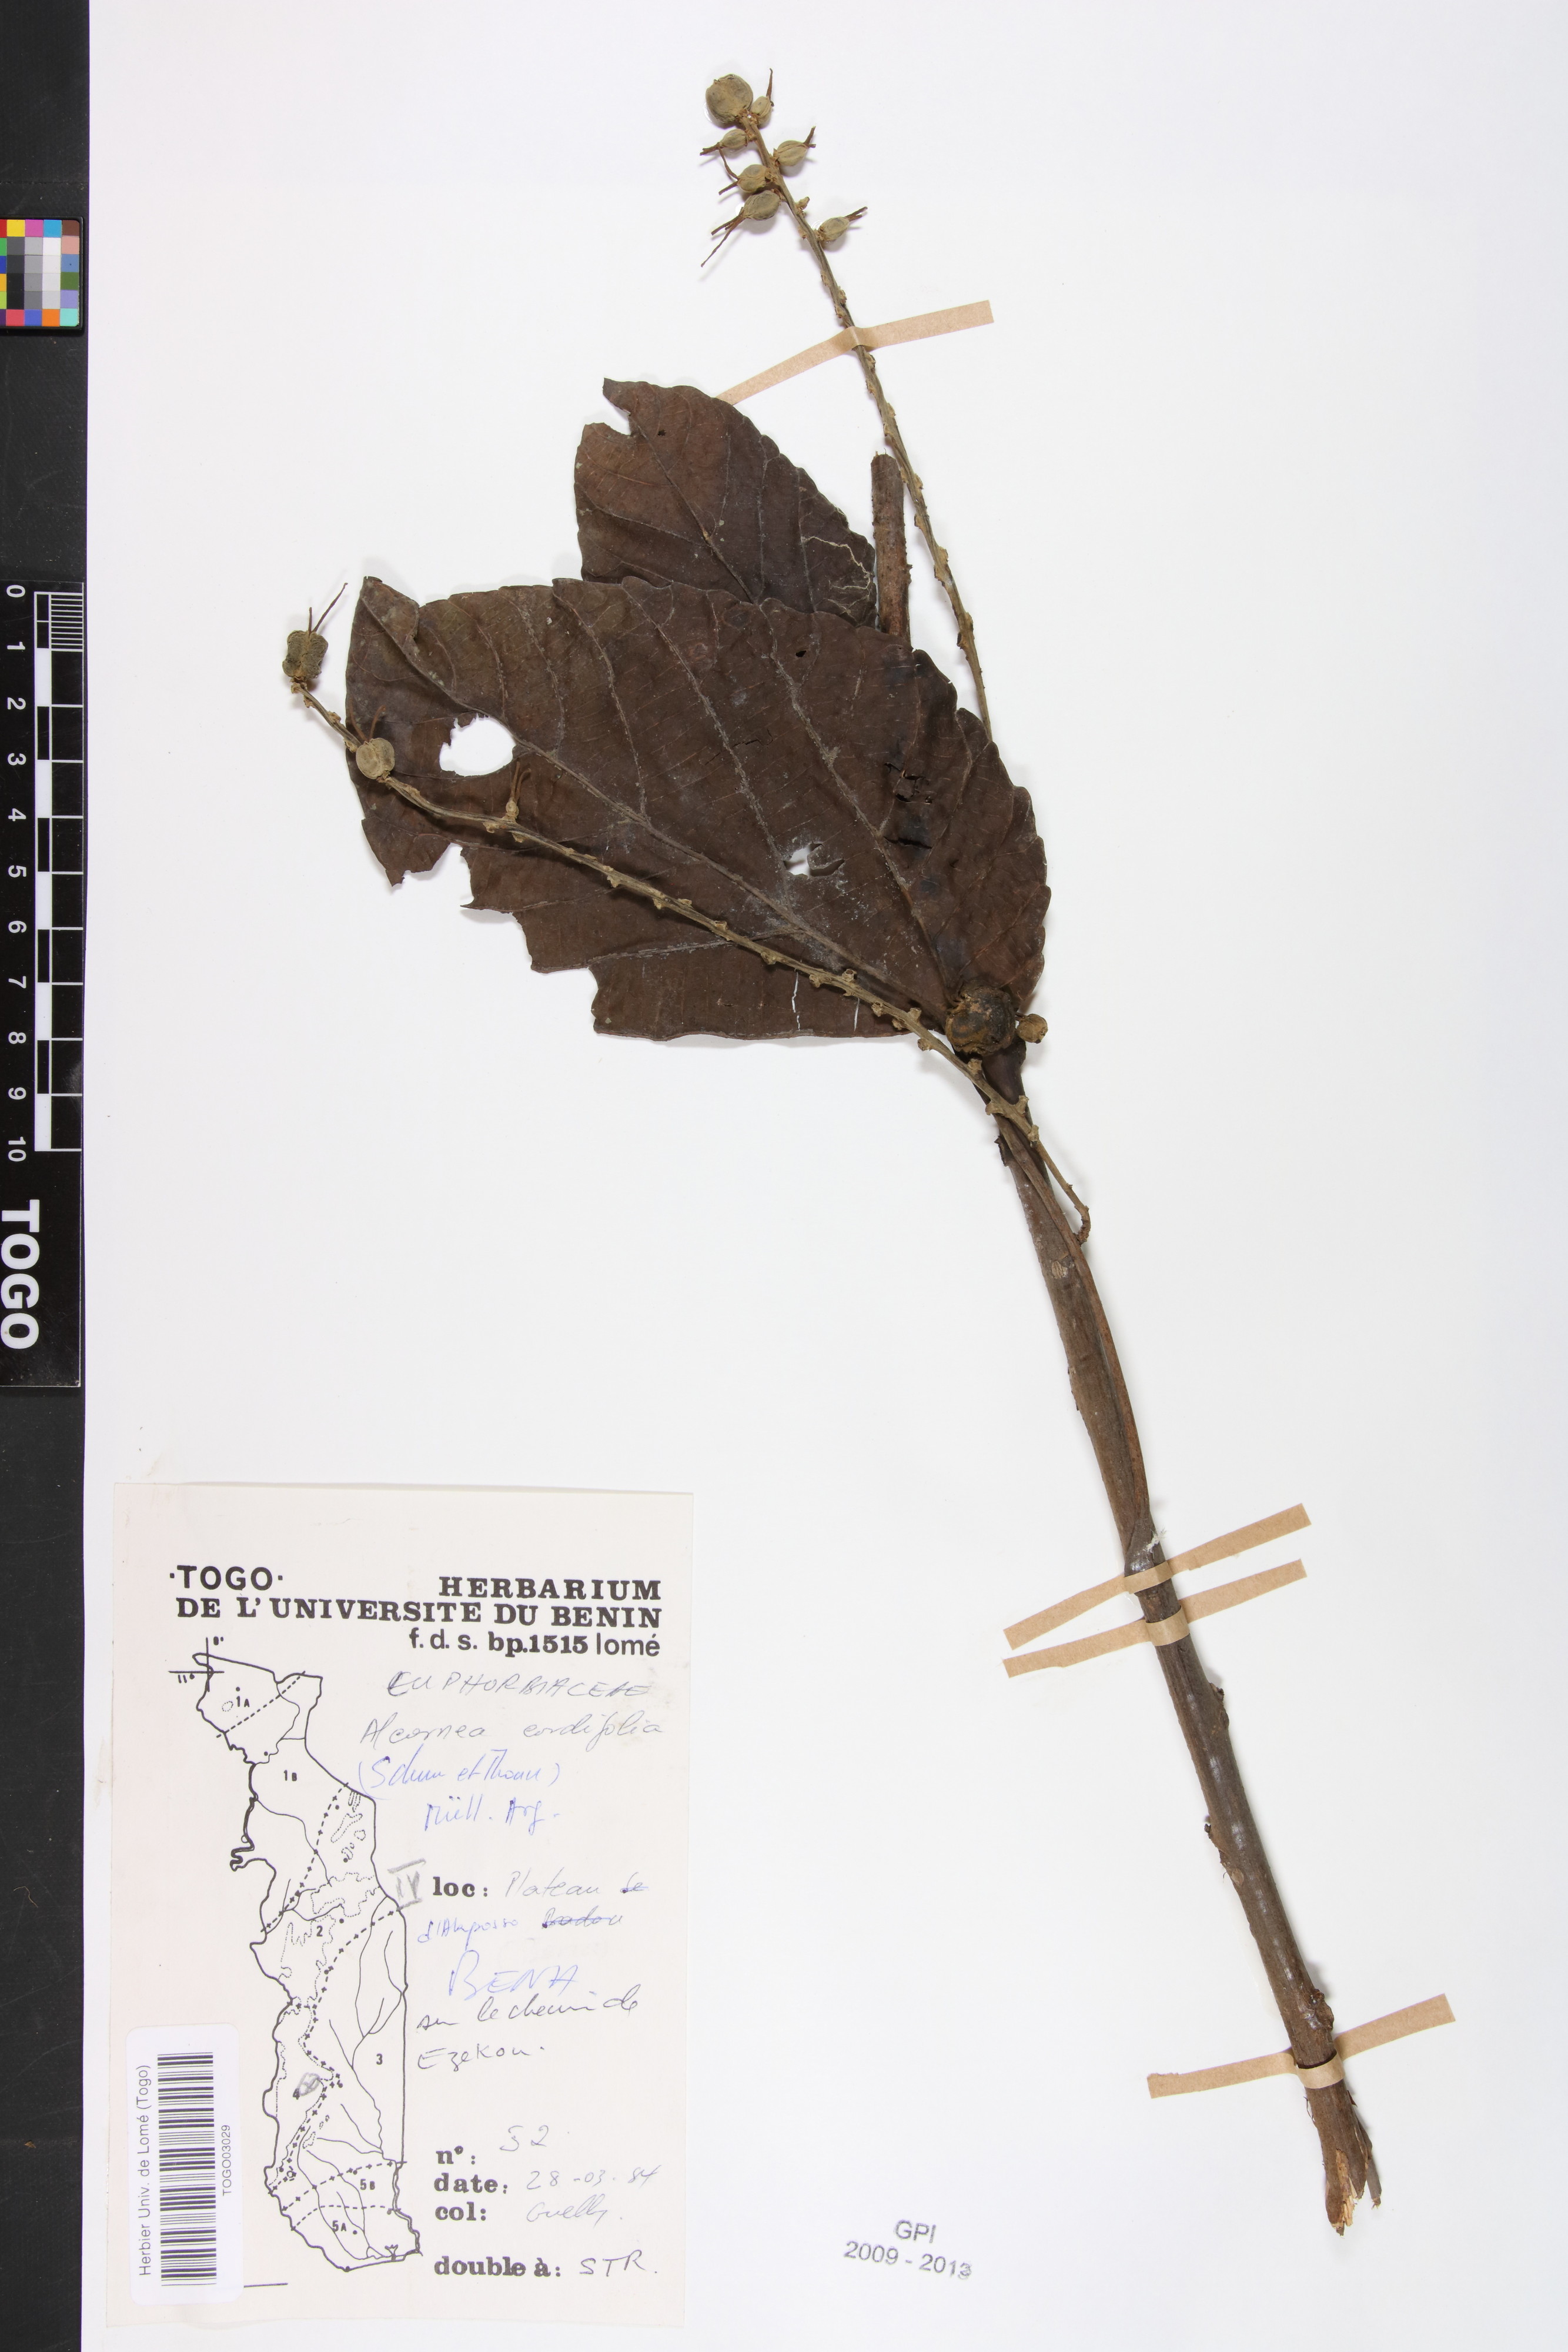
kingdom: Plantae
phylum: Tracheophyta
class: Magnoliopsida
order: Malpighiales
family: Euphorbiaceae
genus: Alchornea
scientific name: Alchornea floribunda
